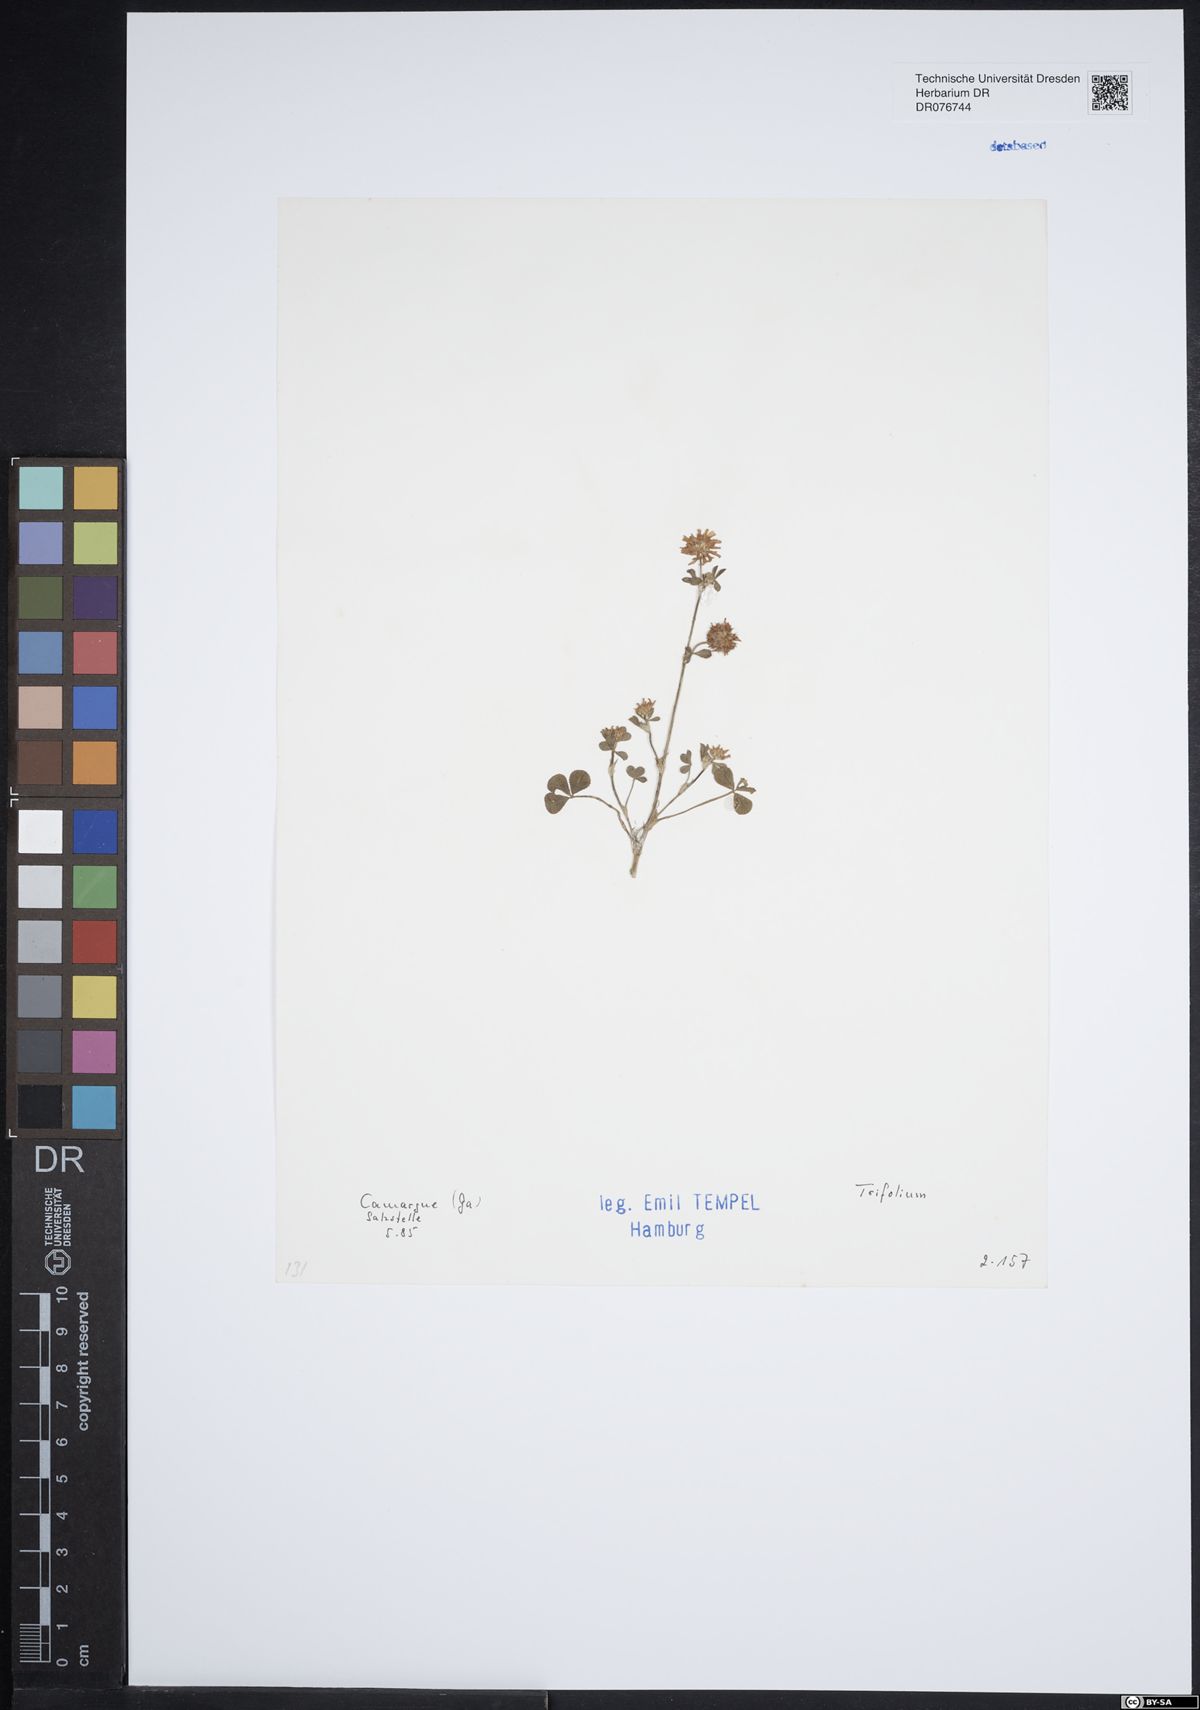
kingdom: Plantae
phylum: Tracheophyta
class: Magnoliopsida
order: Fabales
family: Fabaceae
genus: Trifolium
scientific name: Trifolium
